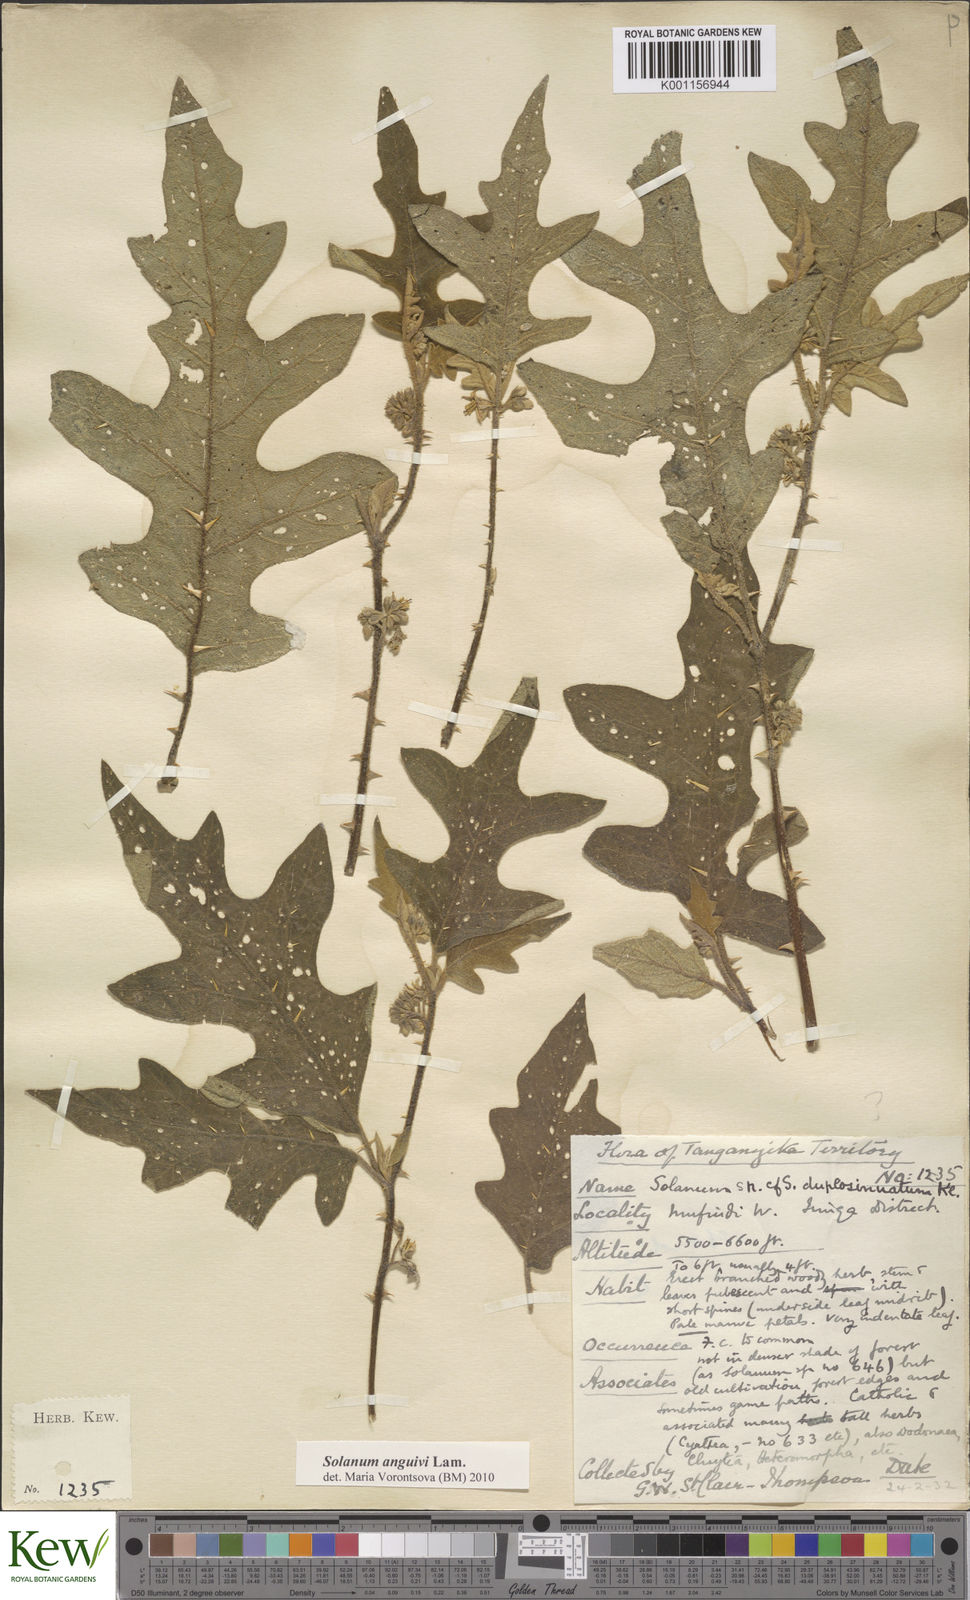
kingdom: Plantae
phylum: Tracheophyta
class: Magnoliopsida
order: Solanales
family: Solanaceae
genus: Solanum
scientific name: Solanum anguivi
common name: Forest bitterberry
